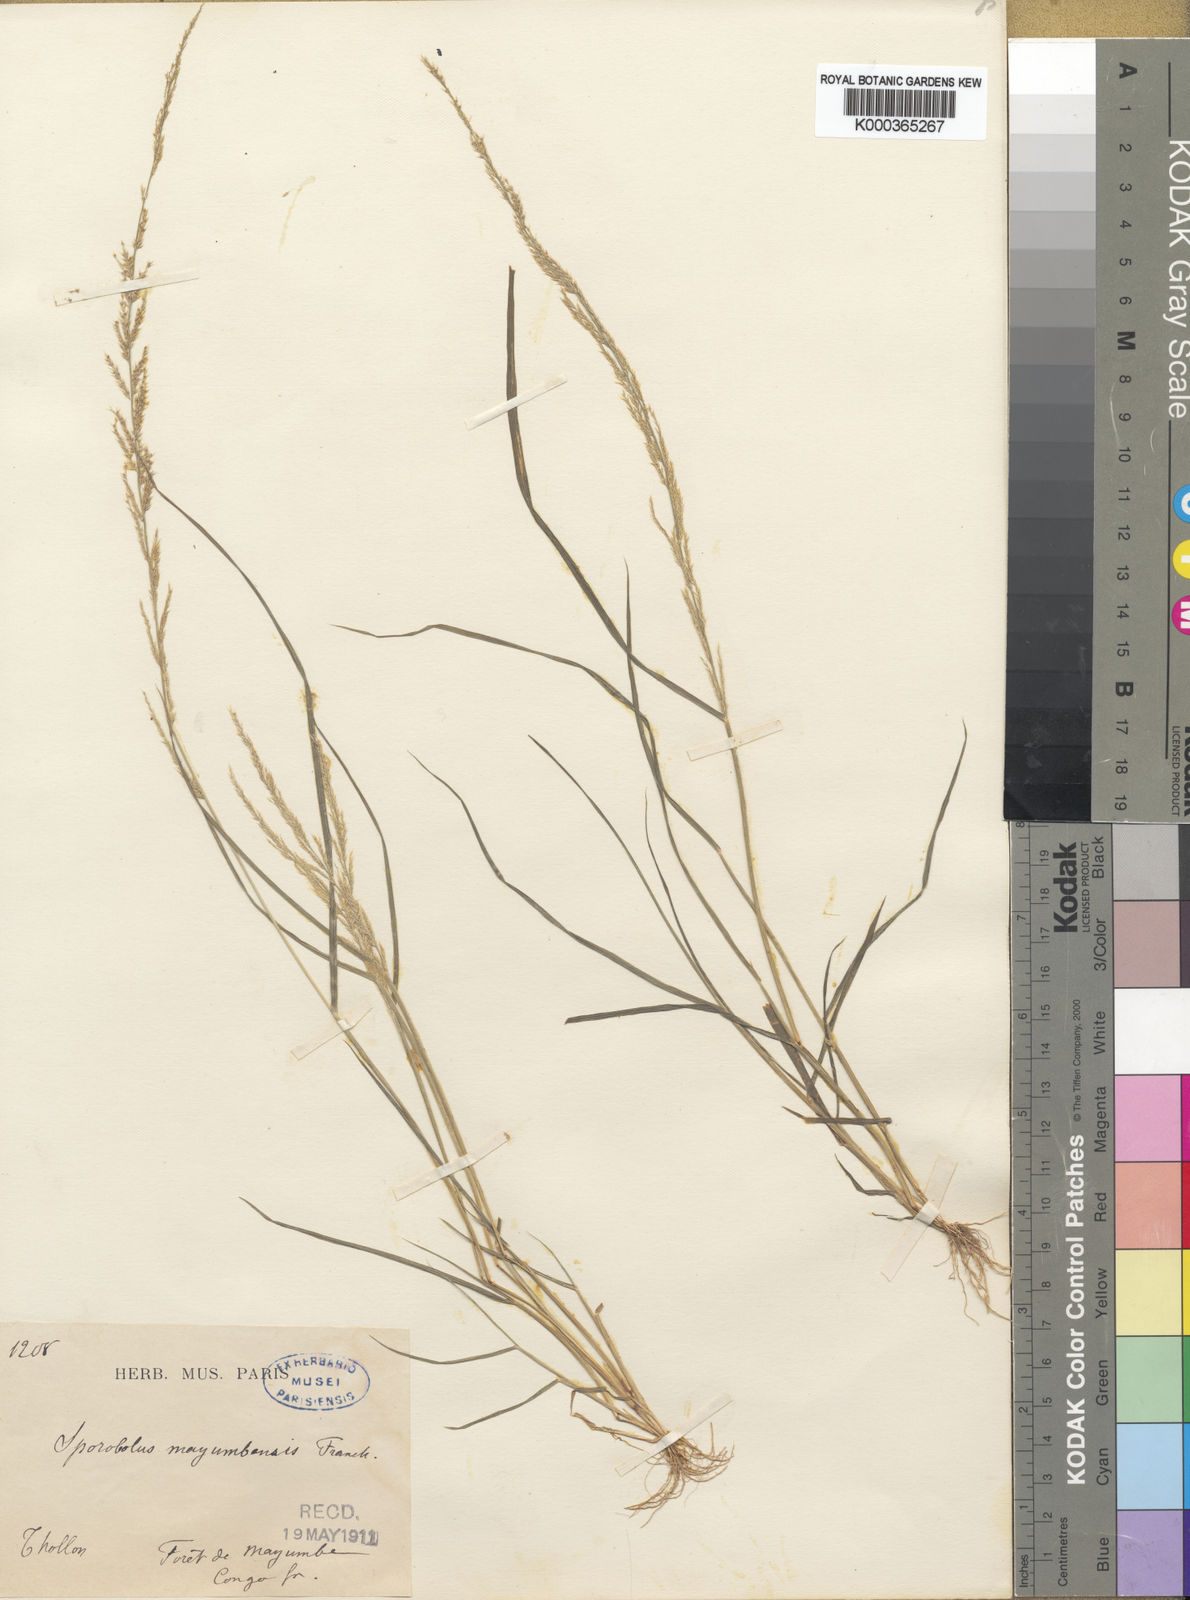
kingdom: Plantae
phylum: Tracheophyta
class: Liliopsida
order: Poales
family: Poaceae
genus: Sporobolus
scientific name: Sporobolus molleri
